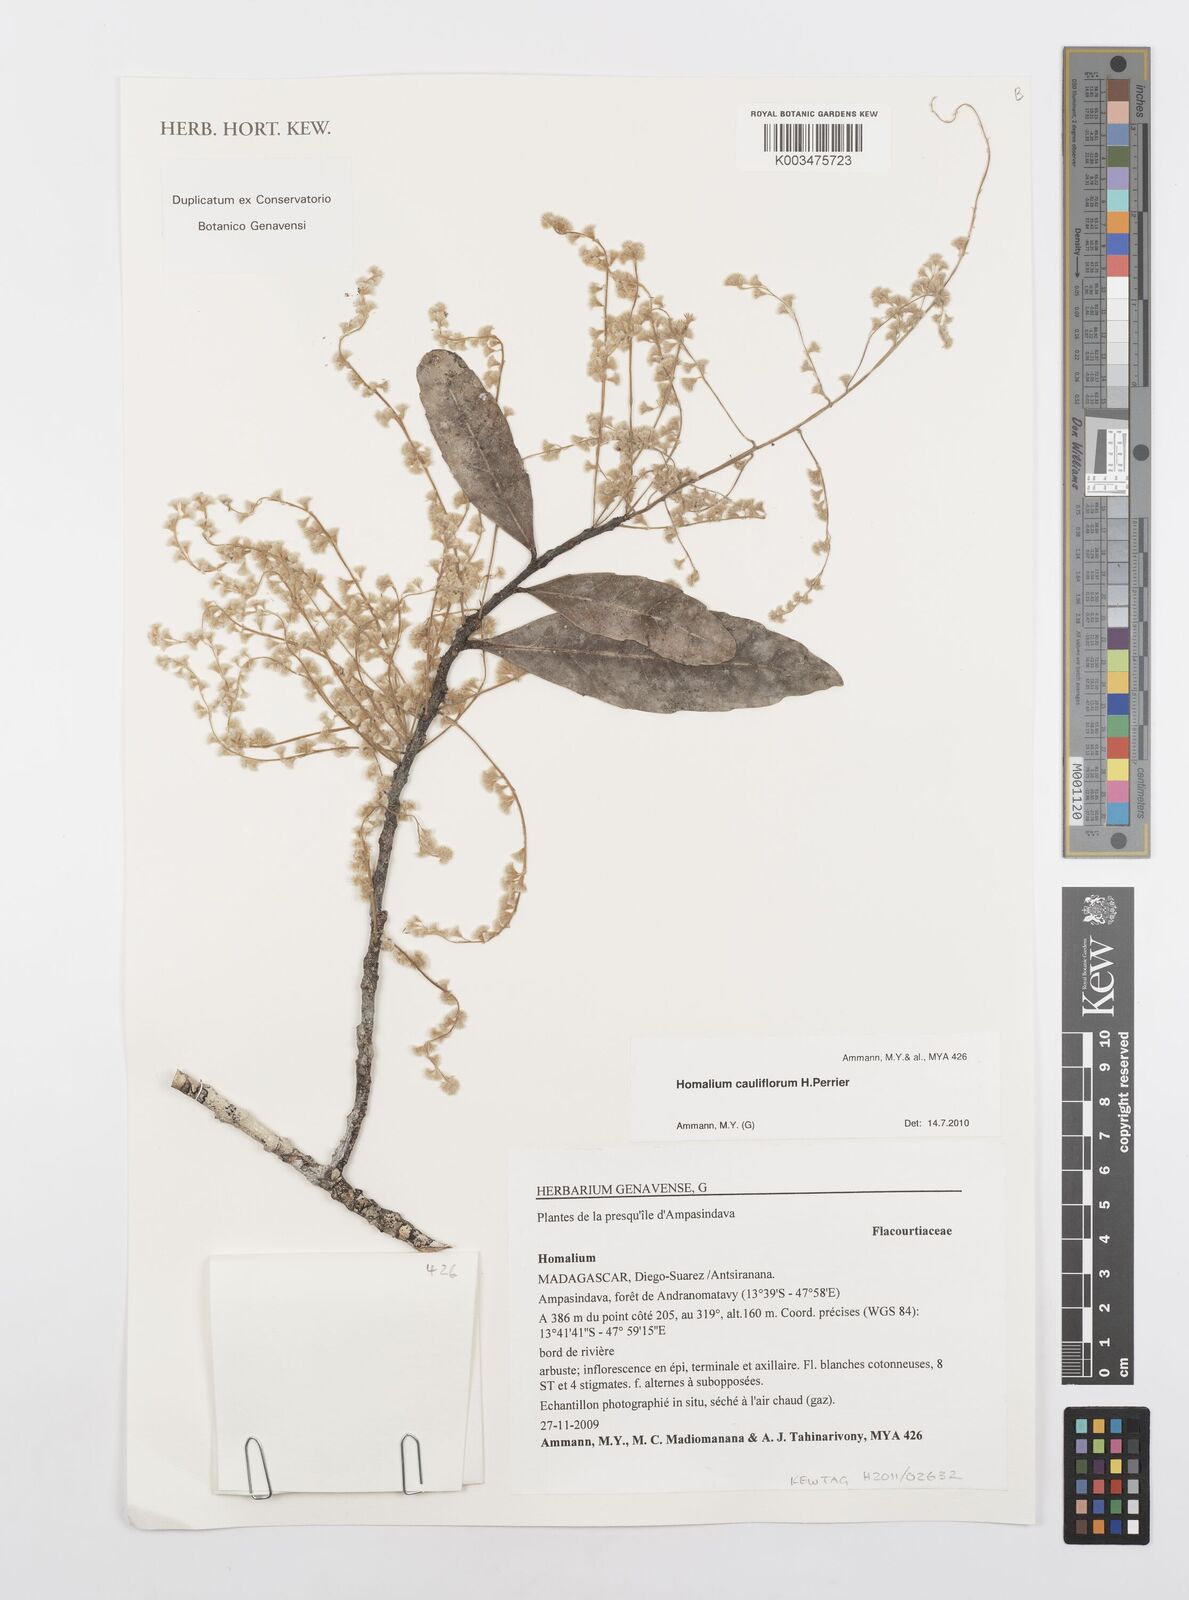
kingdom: Plantae
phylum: Tracheophyta
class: Magnoliopsida
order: Malpighiales
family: Salicaceae
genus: Homalium
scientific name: Homalium cauliflorum
